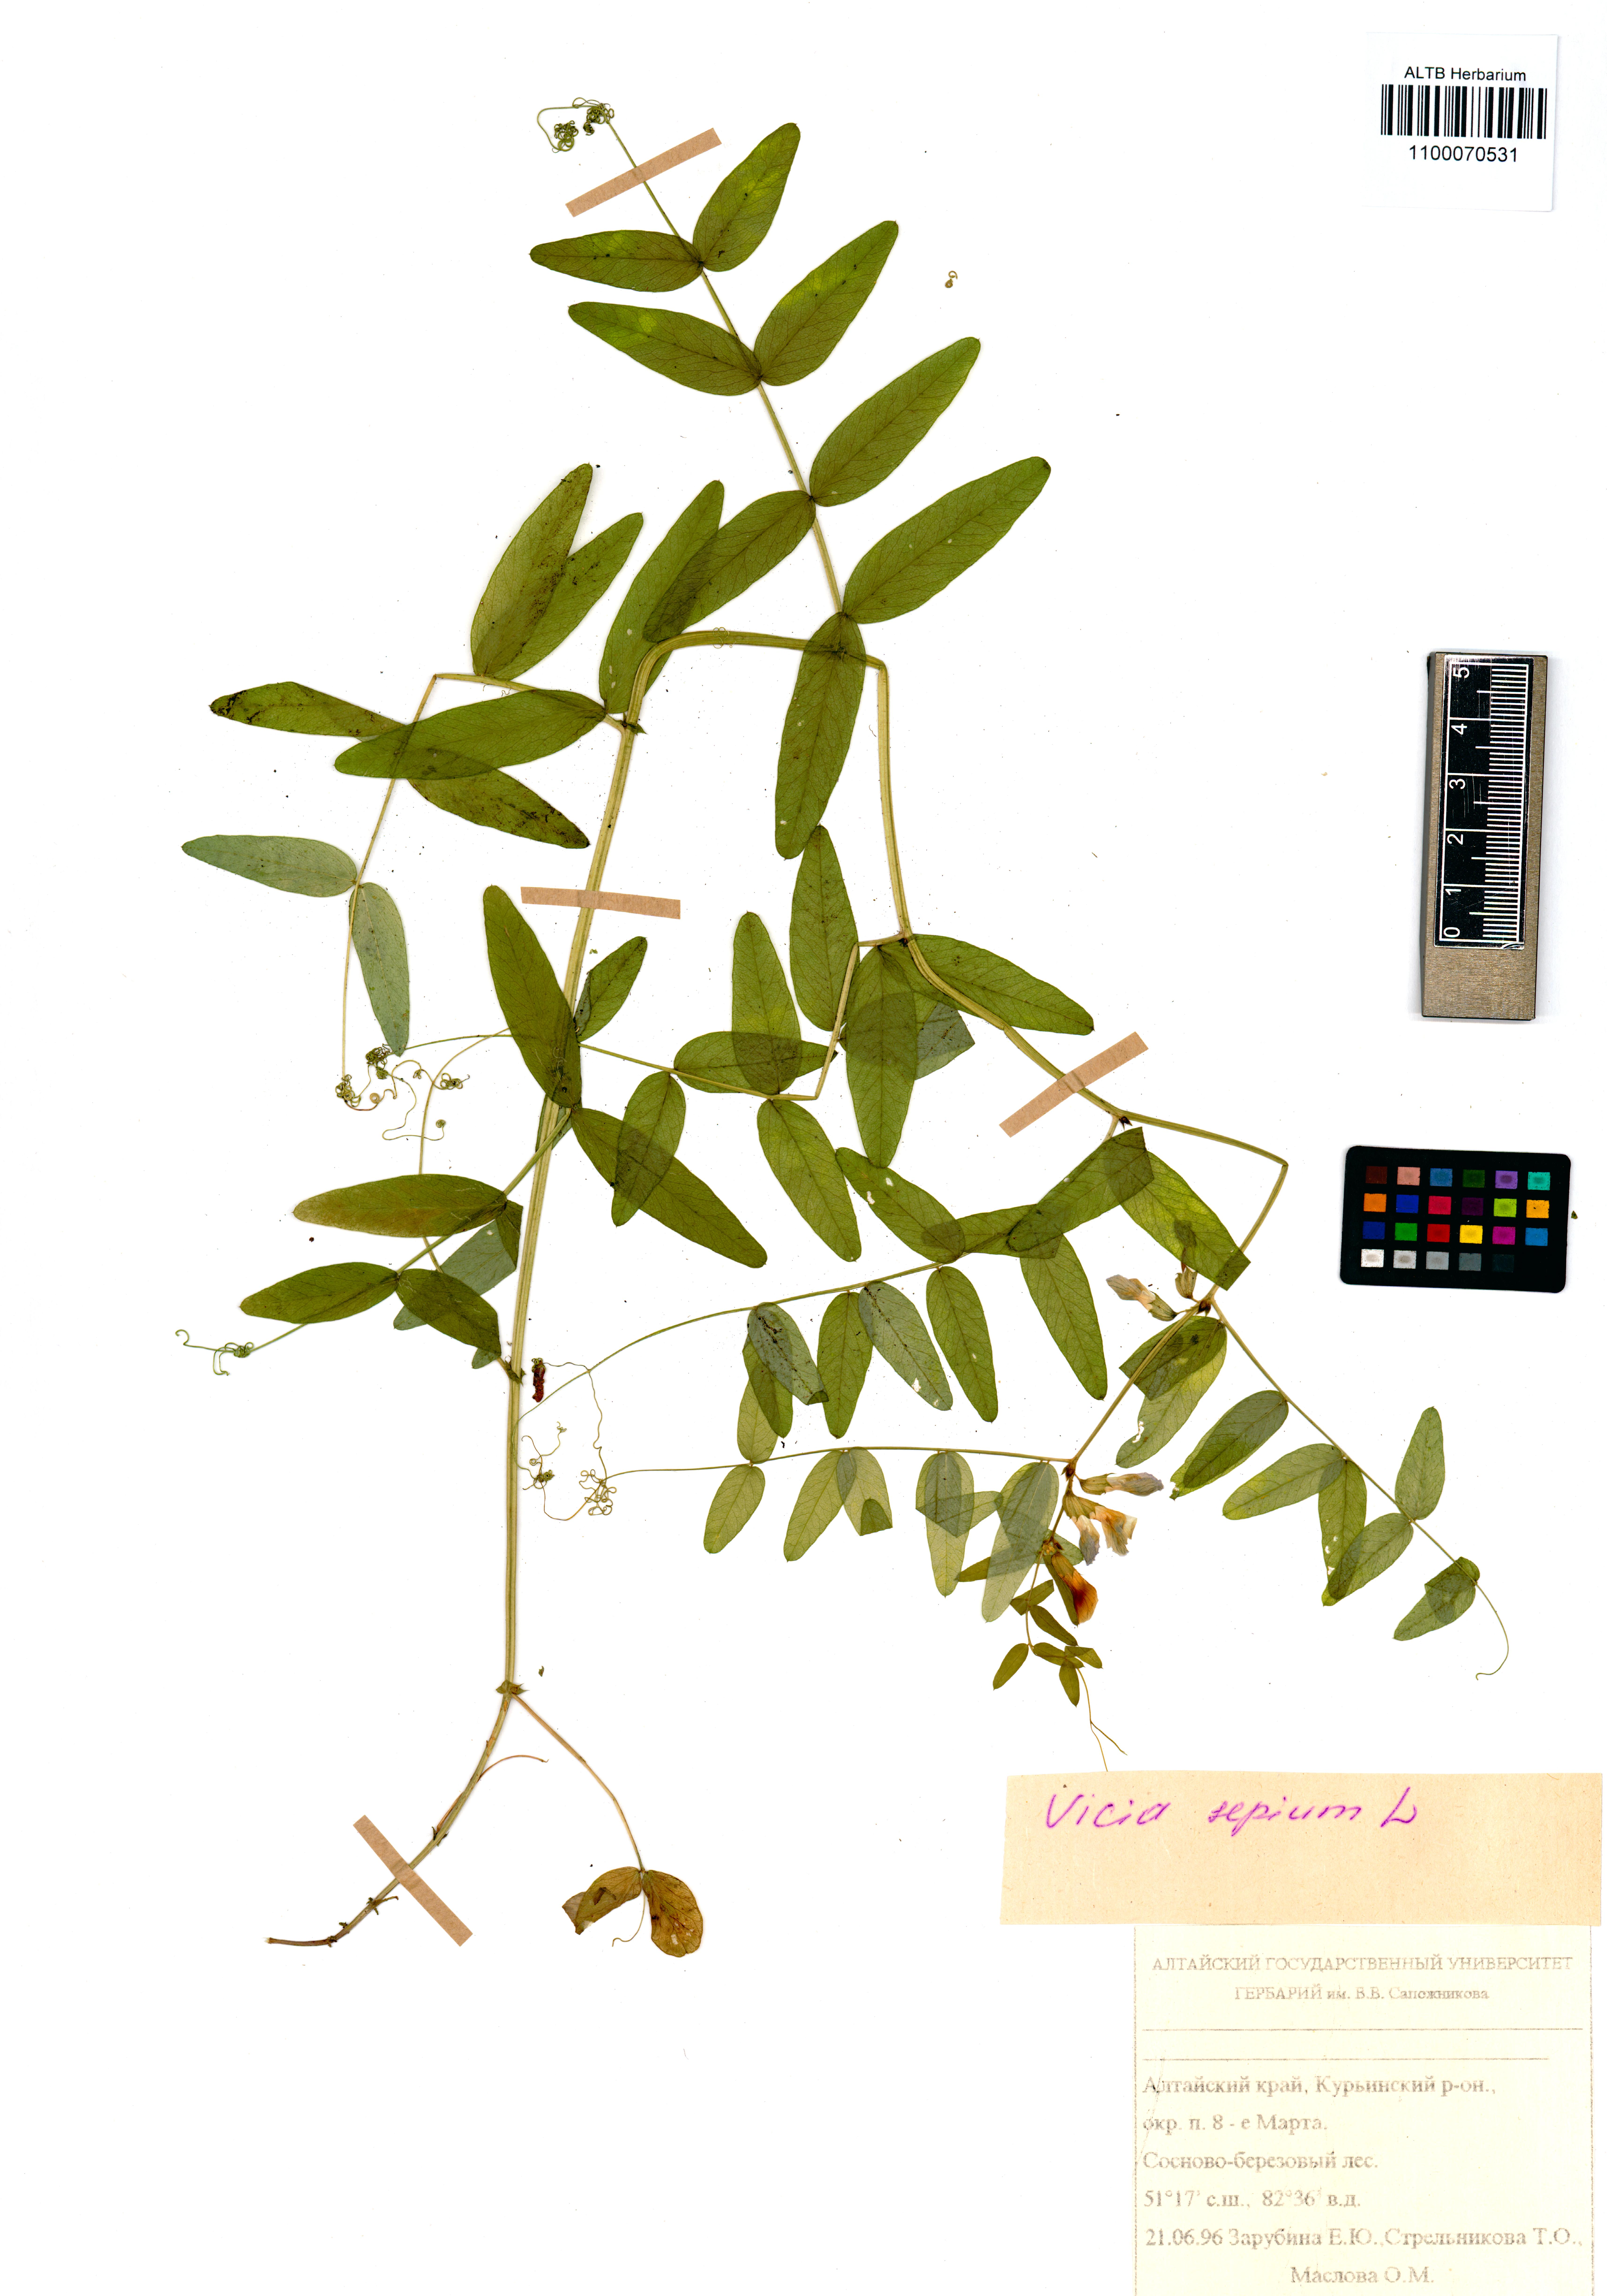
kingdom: Plantae
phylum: Tracheophyta
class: Magnoliopsida
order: Fabales
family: Fabaceae
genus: Vicia
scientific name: Vicia sepium
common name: Bush vetch
